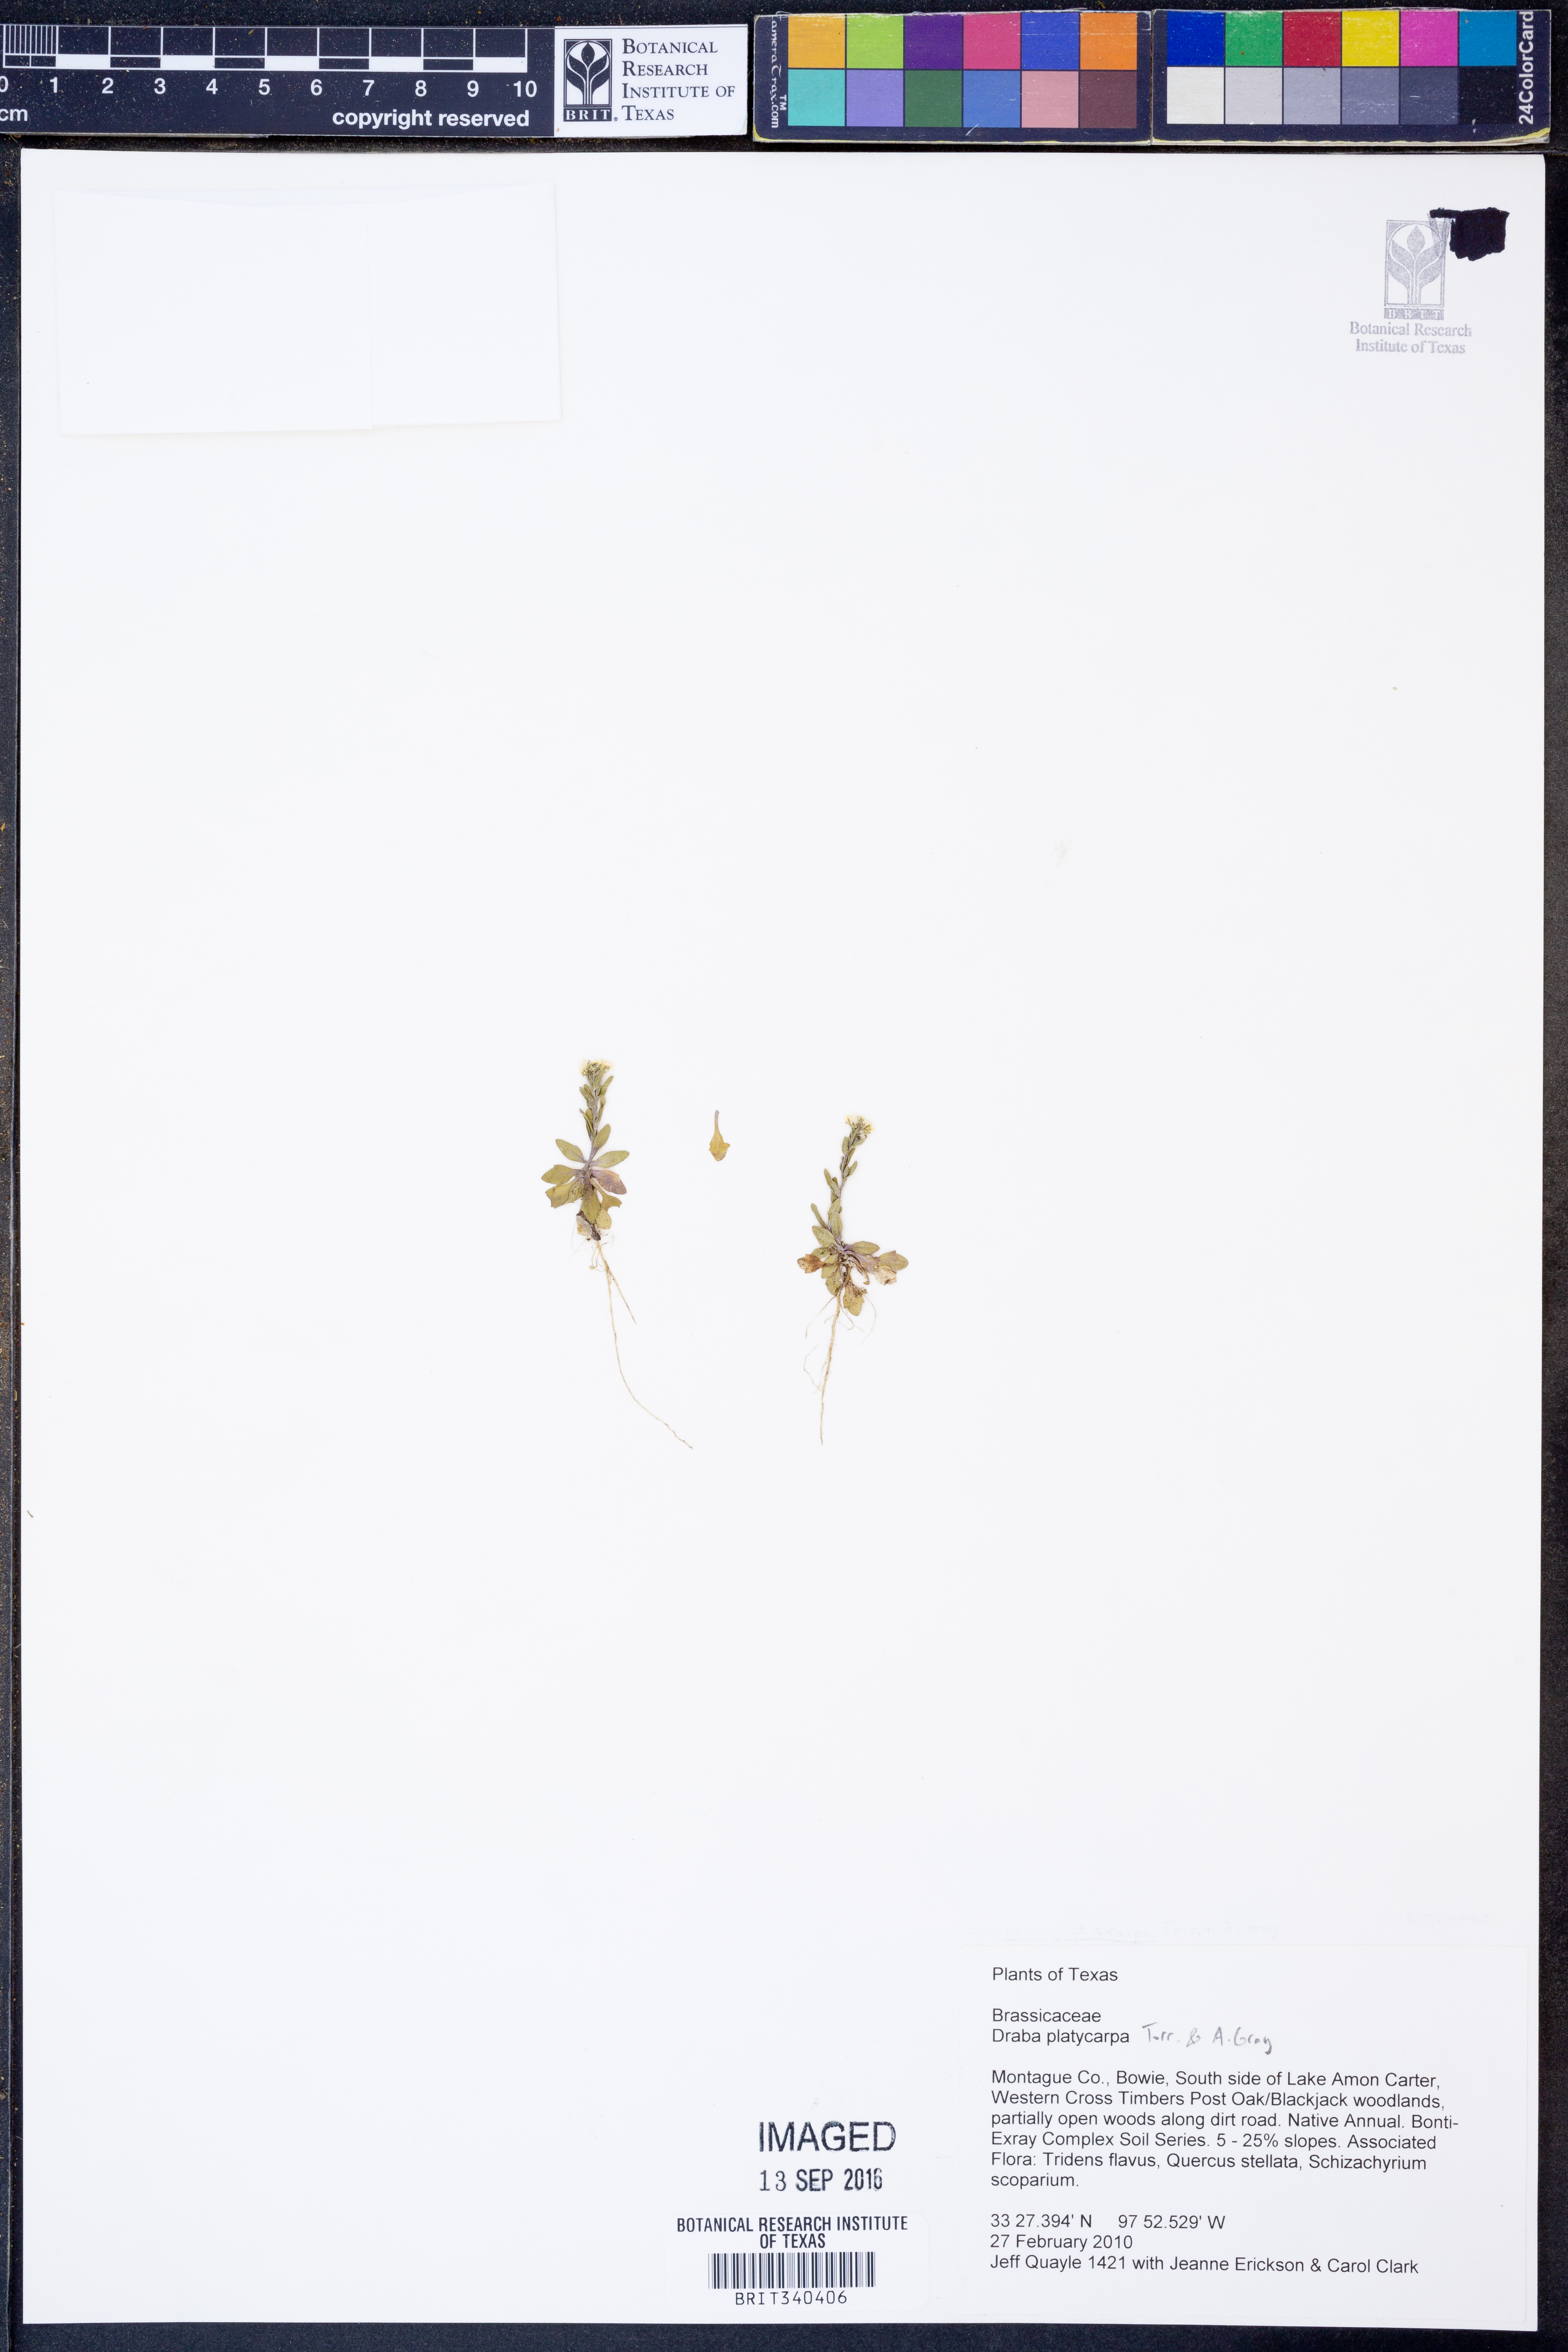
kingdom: Plantae
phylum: Tracheophyta
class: Magnoliopsida
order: Brassicales
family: Brassicaceae
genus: Tomostima
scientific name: Tomostima platycarpa
